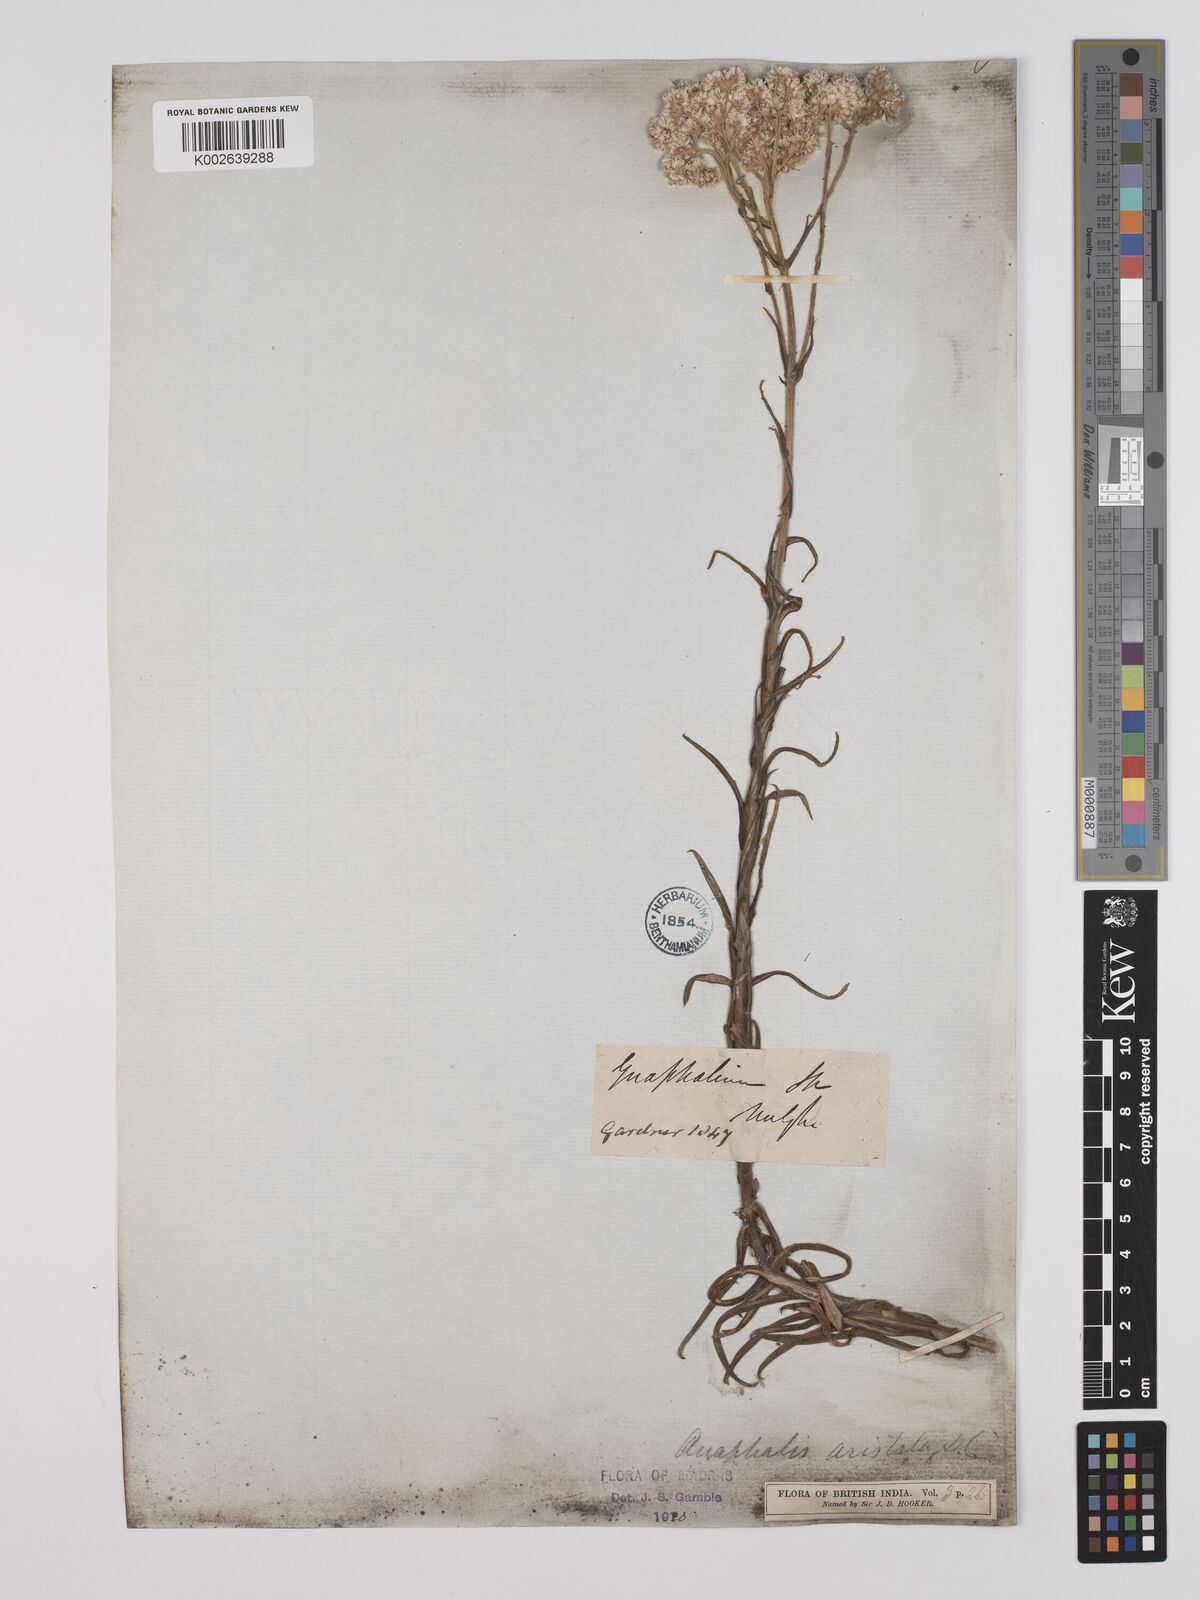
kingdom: Plantae
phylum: Tracheophyta
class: Magnoliopsida
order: Asterales
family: Asteraceae
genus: Anaphalis
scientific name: Anaphalis aristata
